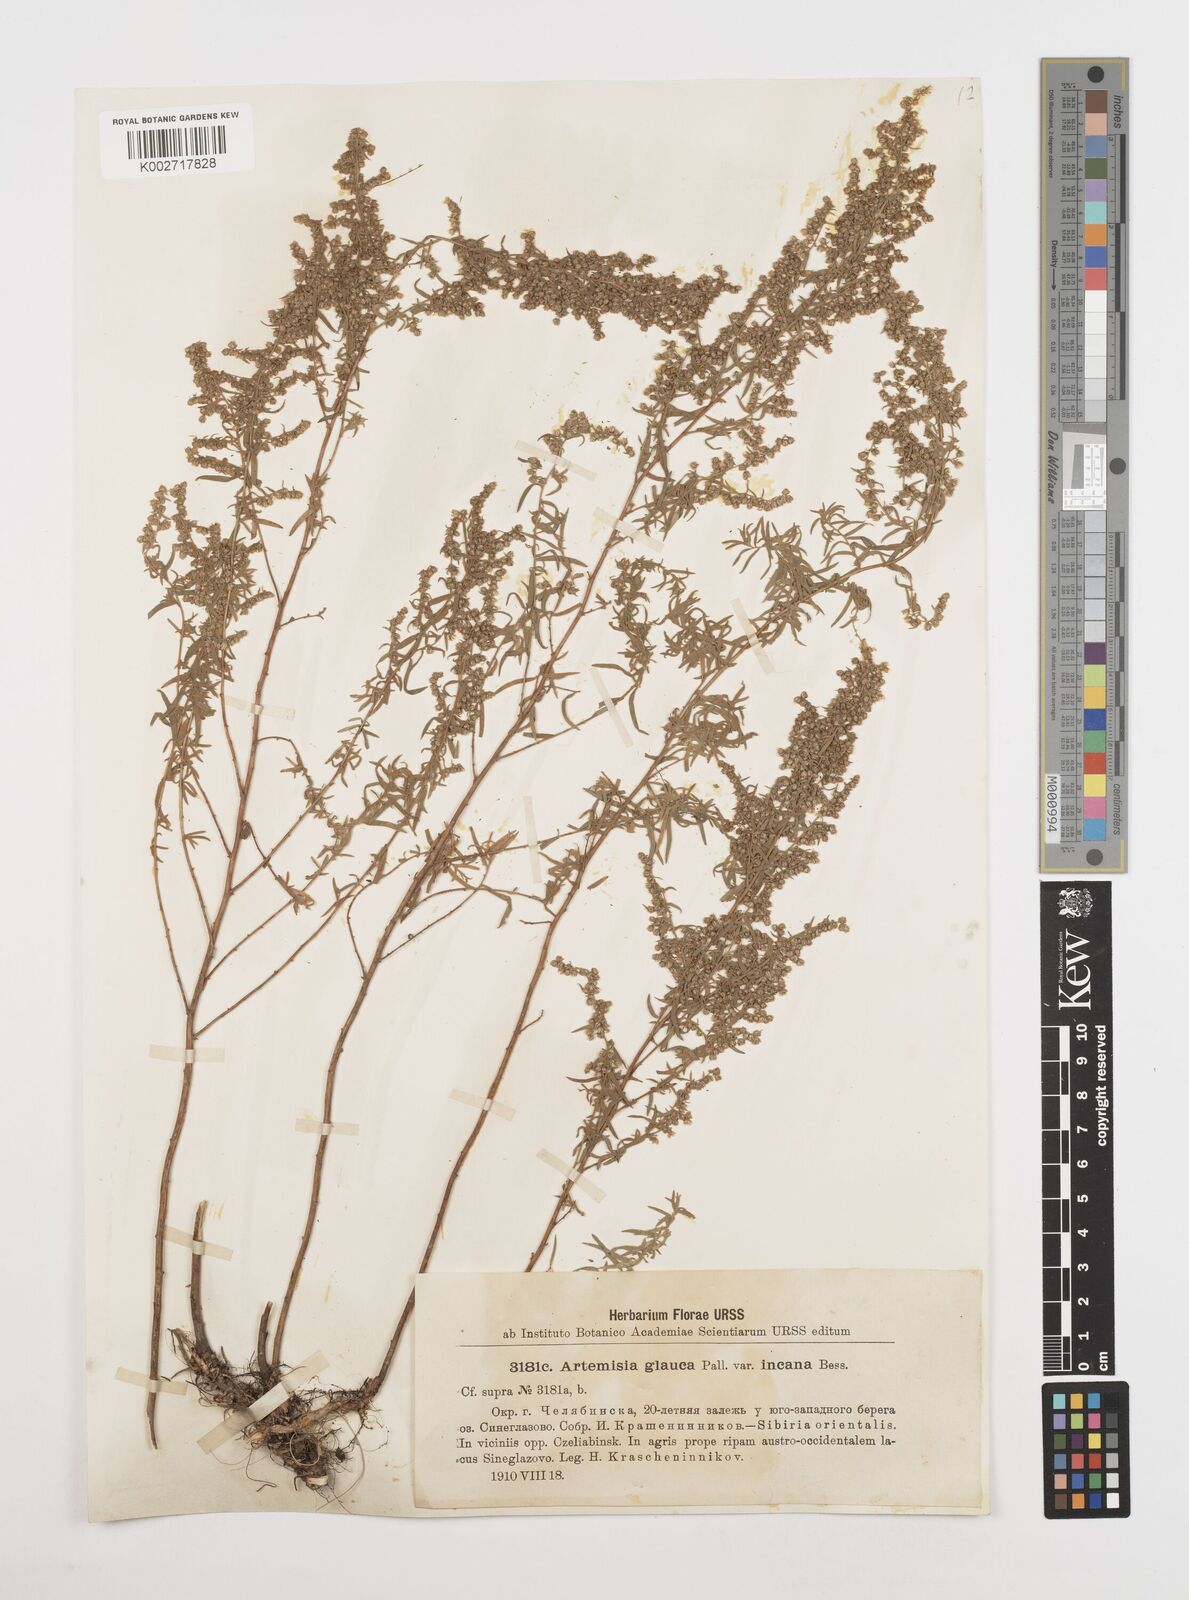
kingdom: Plantae
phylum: Tracheophyta
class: Magnoliopsida
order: Asterales
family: Asteraceae
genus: Artemisia
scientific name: Artemisia glauca
